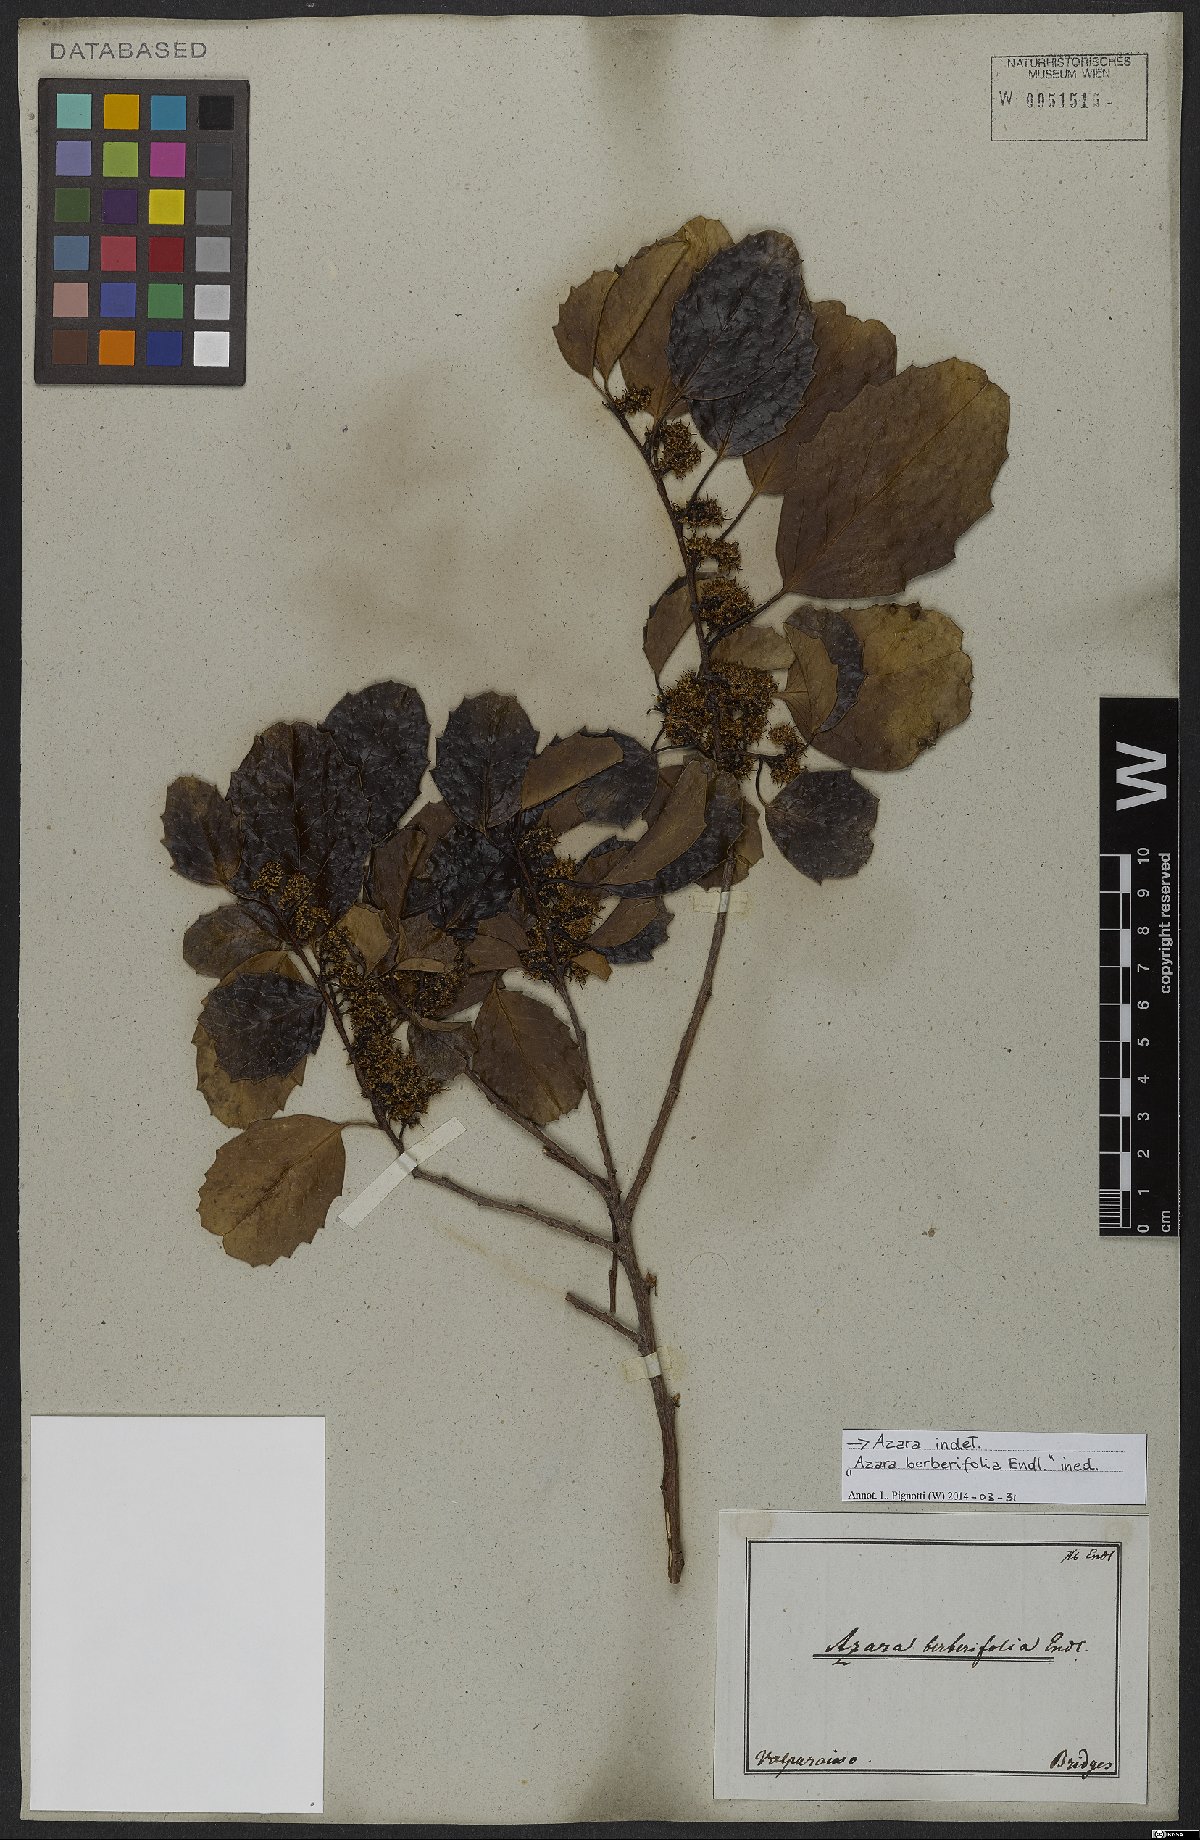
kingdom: Plantae
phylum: Tracheophyta
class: Magnoliopsida
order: Malpighiales
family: Salicaceae
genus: Azara
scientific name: Azara
